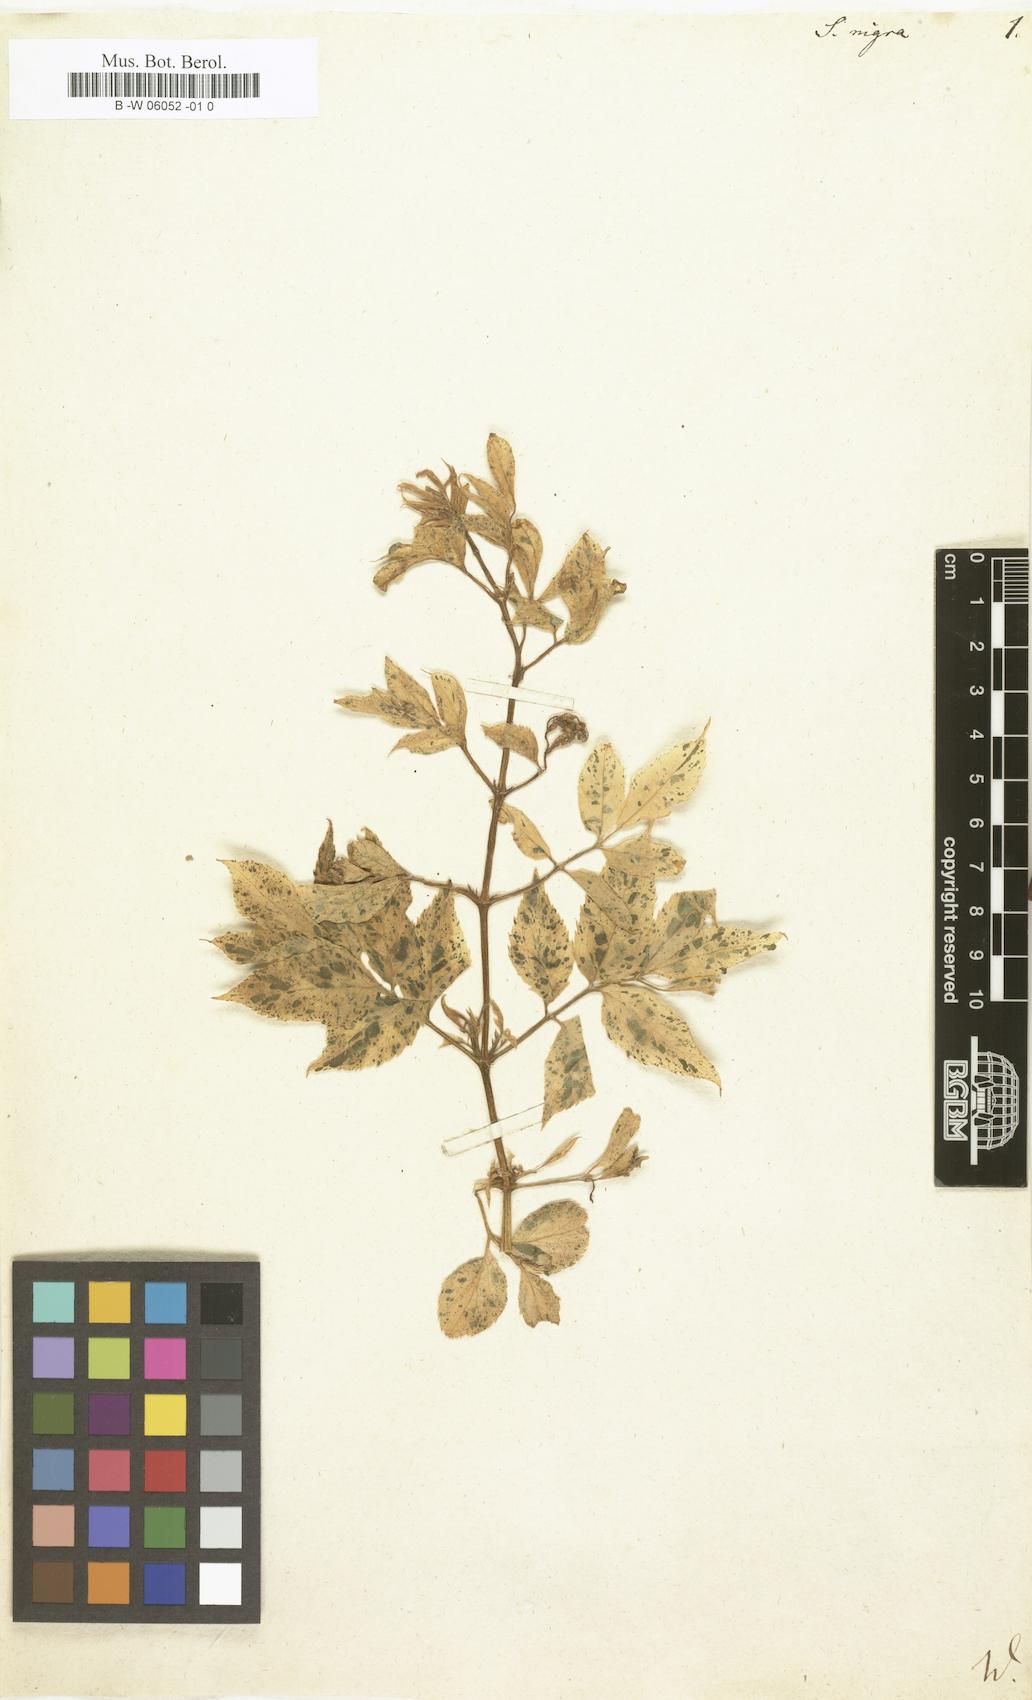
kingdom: Plantae
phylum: Tracheophyta
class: Magnoliopsida
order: Dipsacales
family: Viburnaceae
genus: Sambucus
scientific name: Sambucus nigra
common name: Elder
